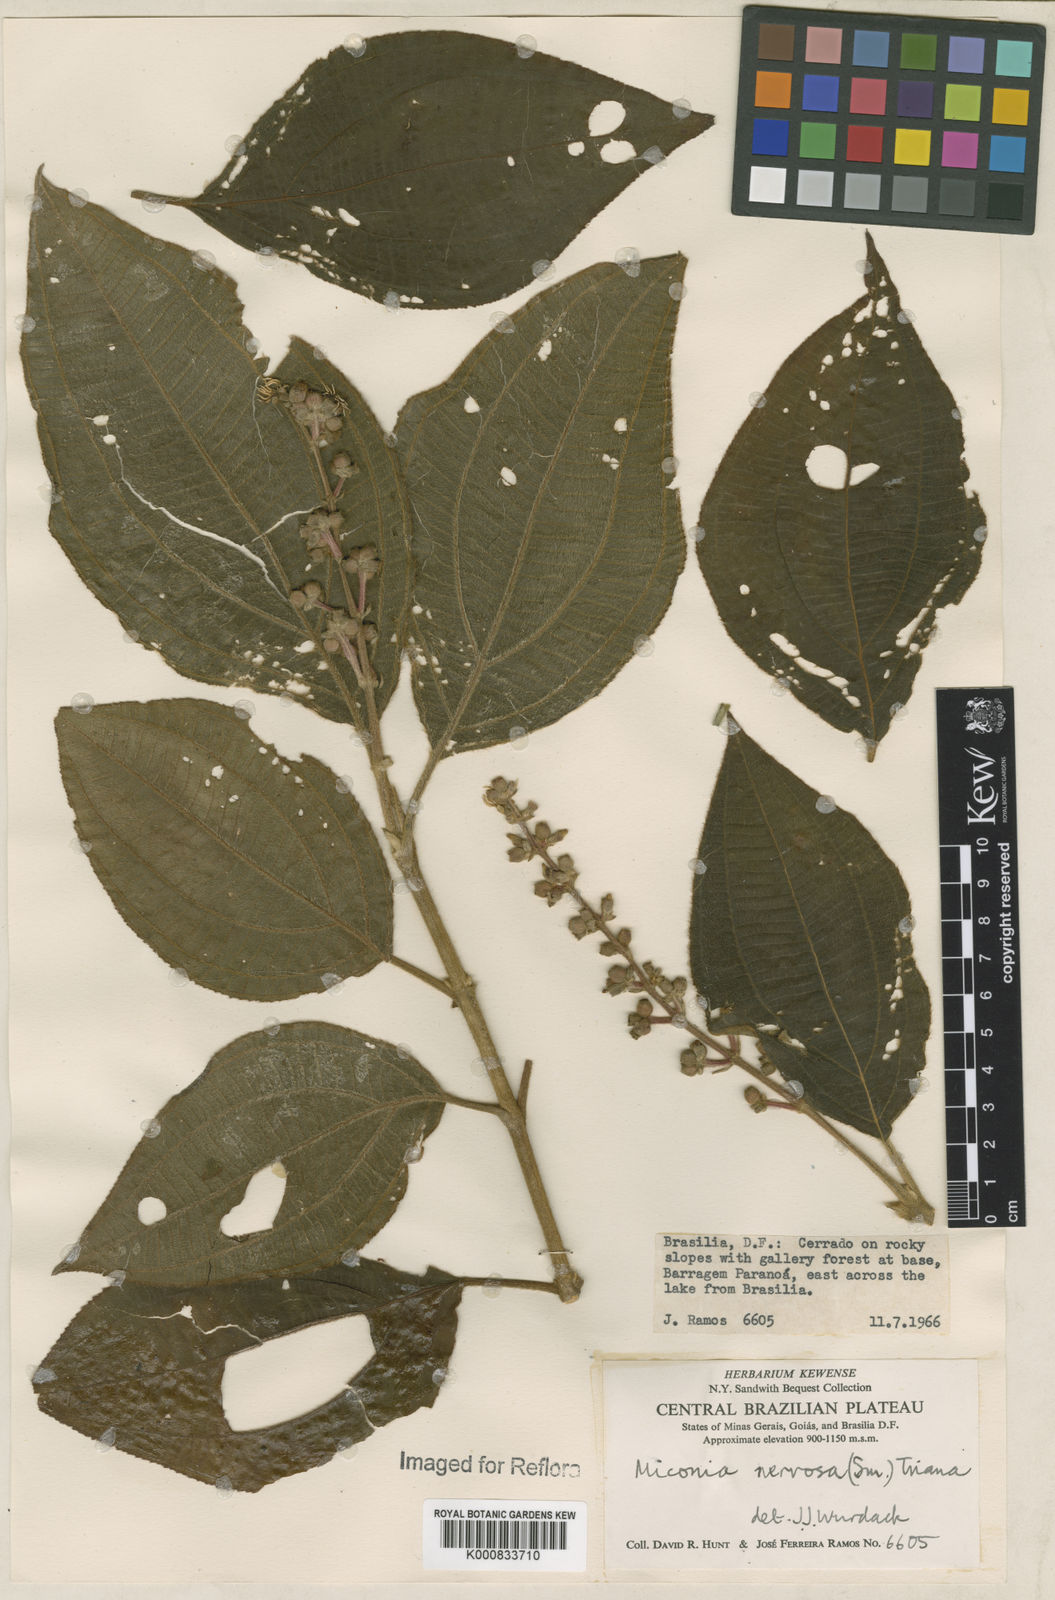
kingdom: Plantae
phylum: Tracheophyta
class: Magnoliopsida
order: Myrtales
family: Melastomataceae
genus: Miconia
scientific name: Miconia nervosa
